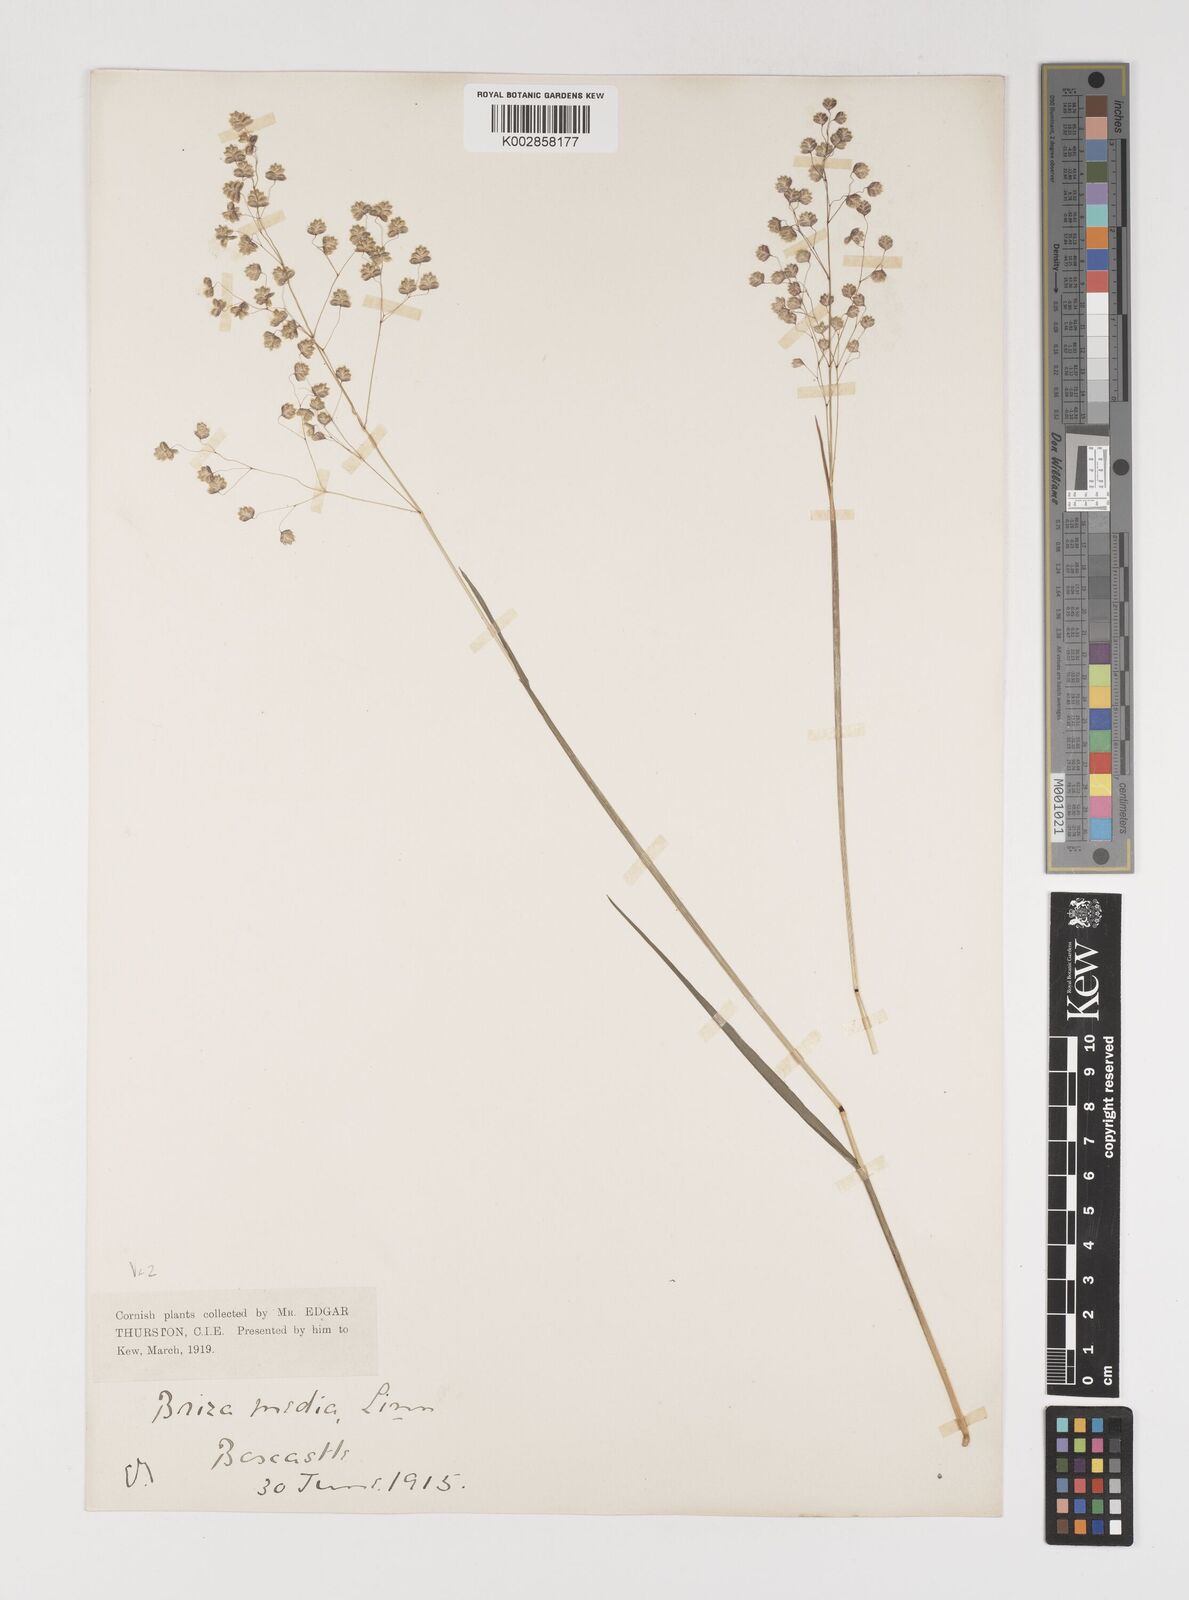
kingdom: Plantae
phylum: Tracheophyta
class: Liliopsida
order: Poales
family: Poaceae
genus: Briza
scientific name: Briza media
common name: Quaking grass
